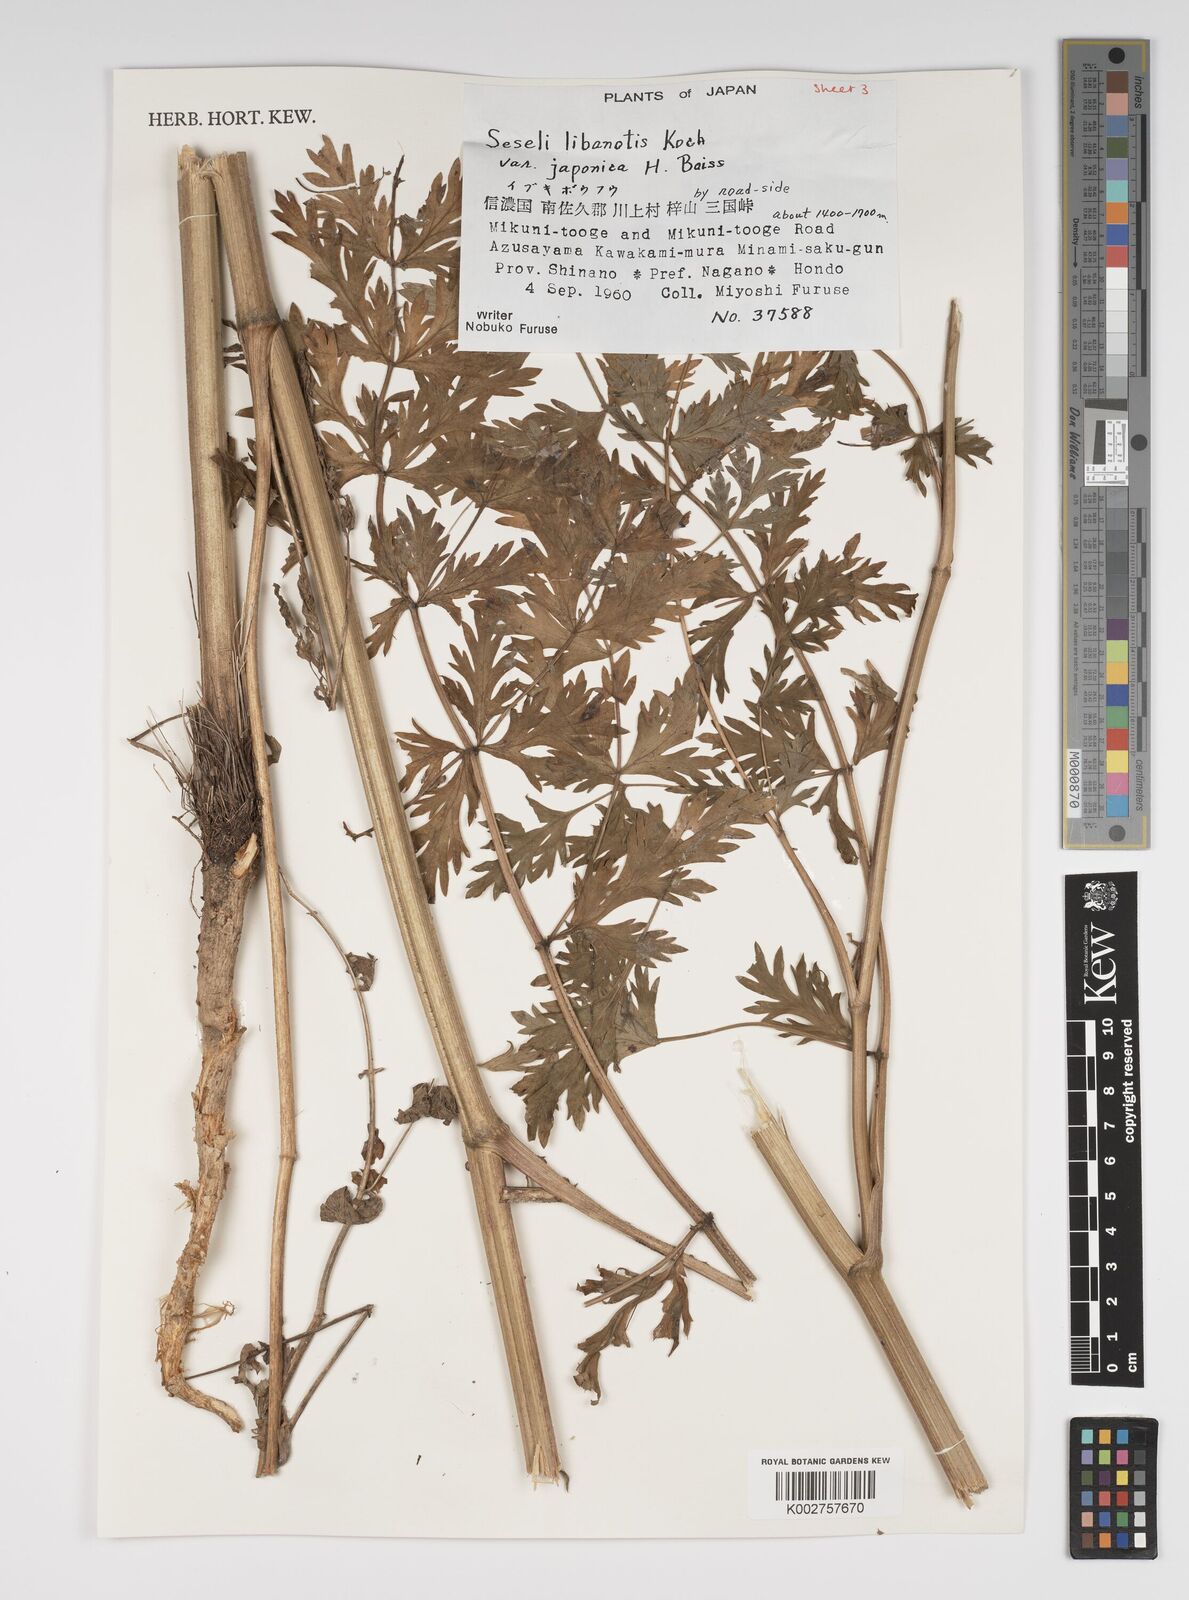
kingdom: Plantae
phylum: Tracheophyta
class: Magnoliopsida
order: Apiales
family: Apiaceae
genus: Seseli
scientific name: Seseli libanotis
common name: Mooncarrot
